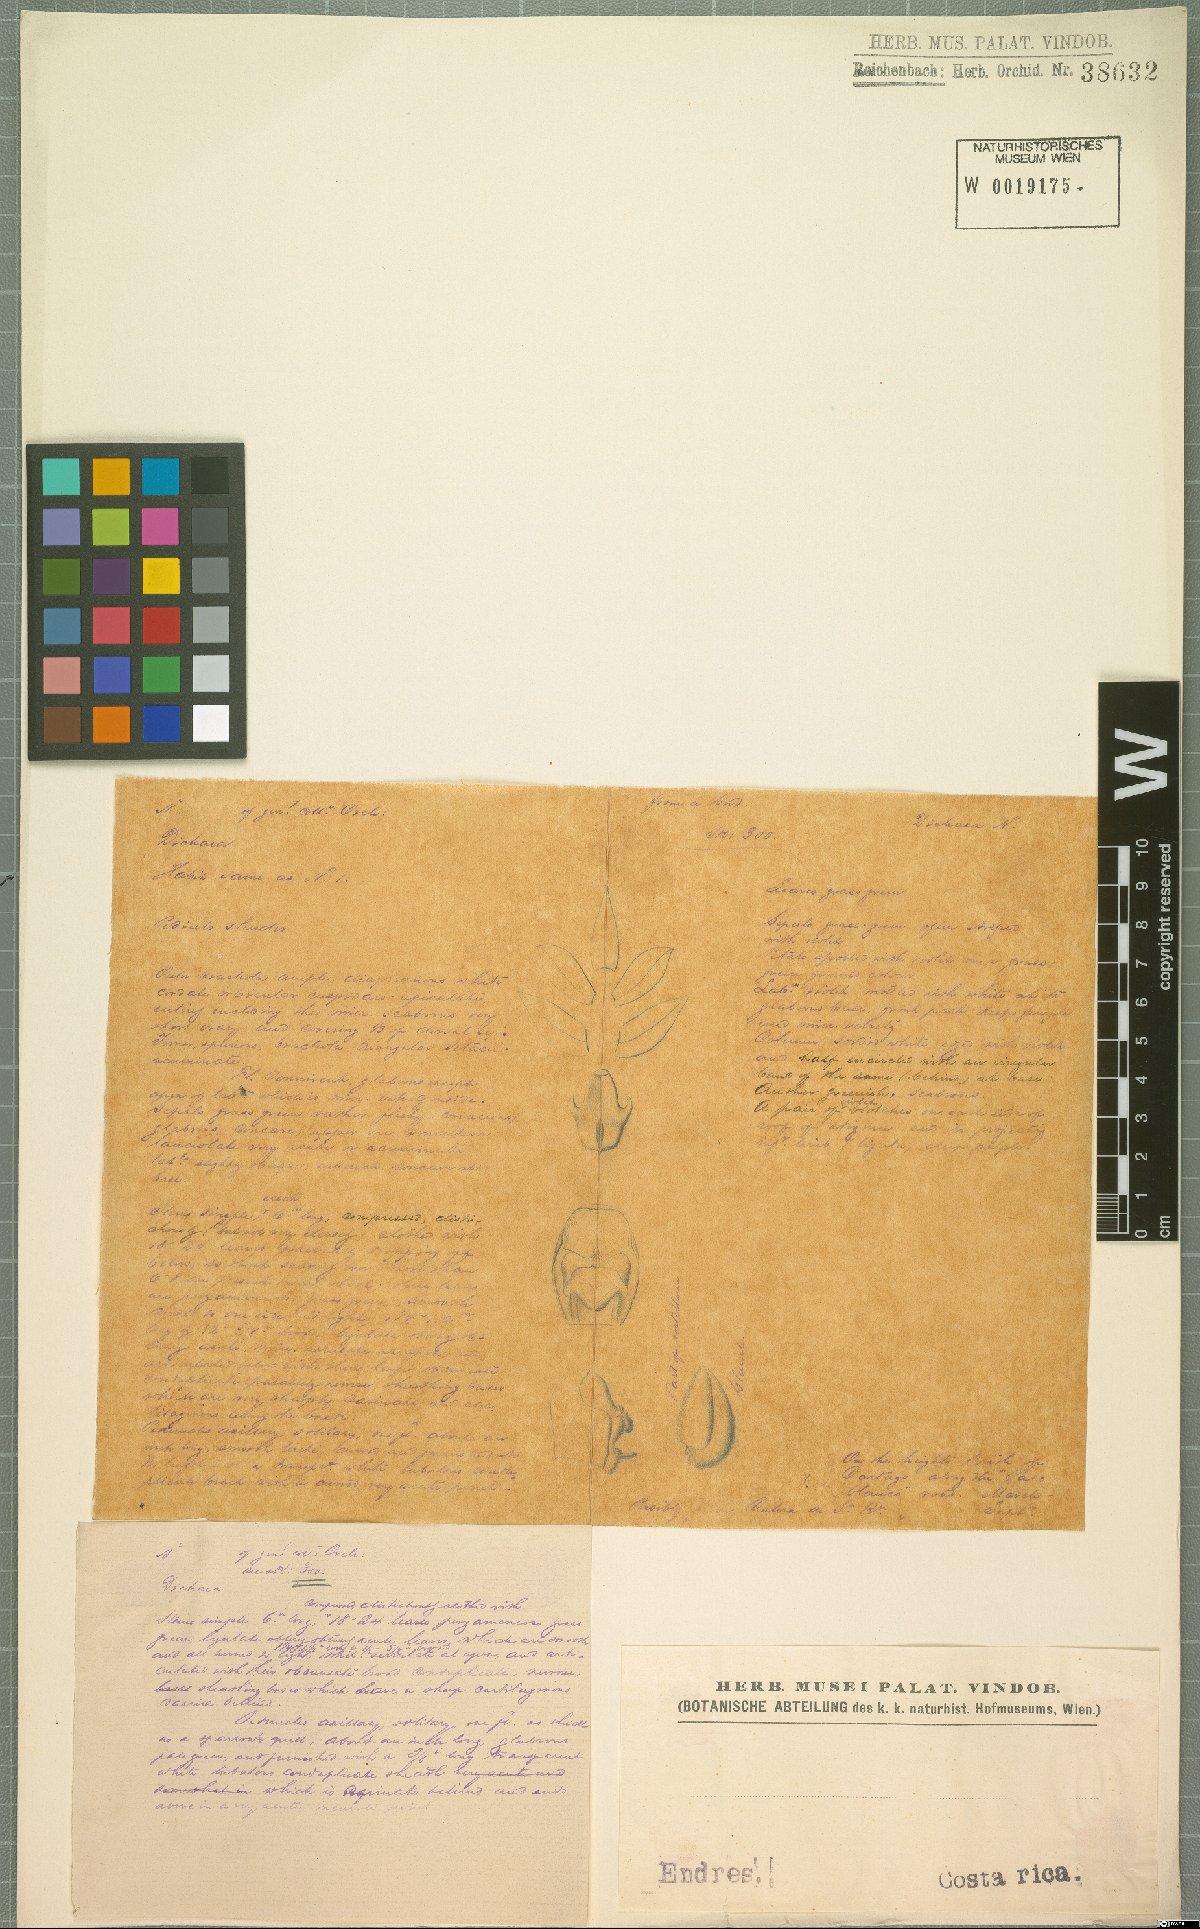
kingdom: Plantae
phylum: Tracheophyta
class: Liliopsida
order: Asparagales
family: Orchidaceae
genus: Dichaea
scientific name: Dichaea
